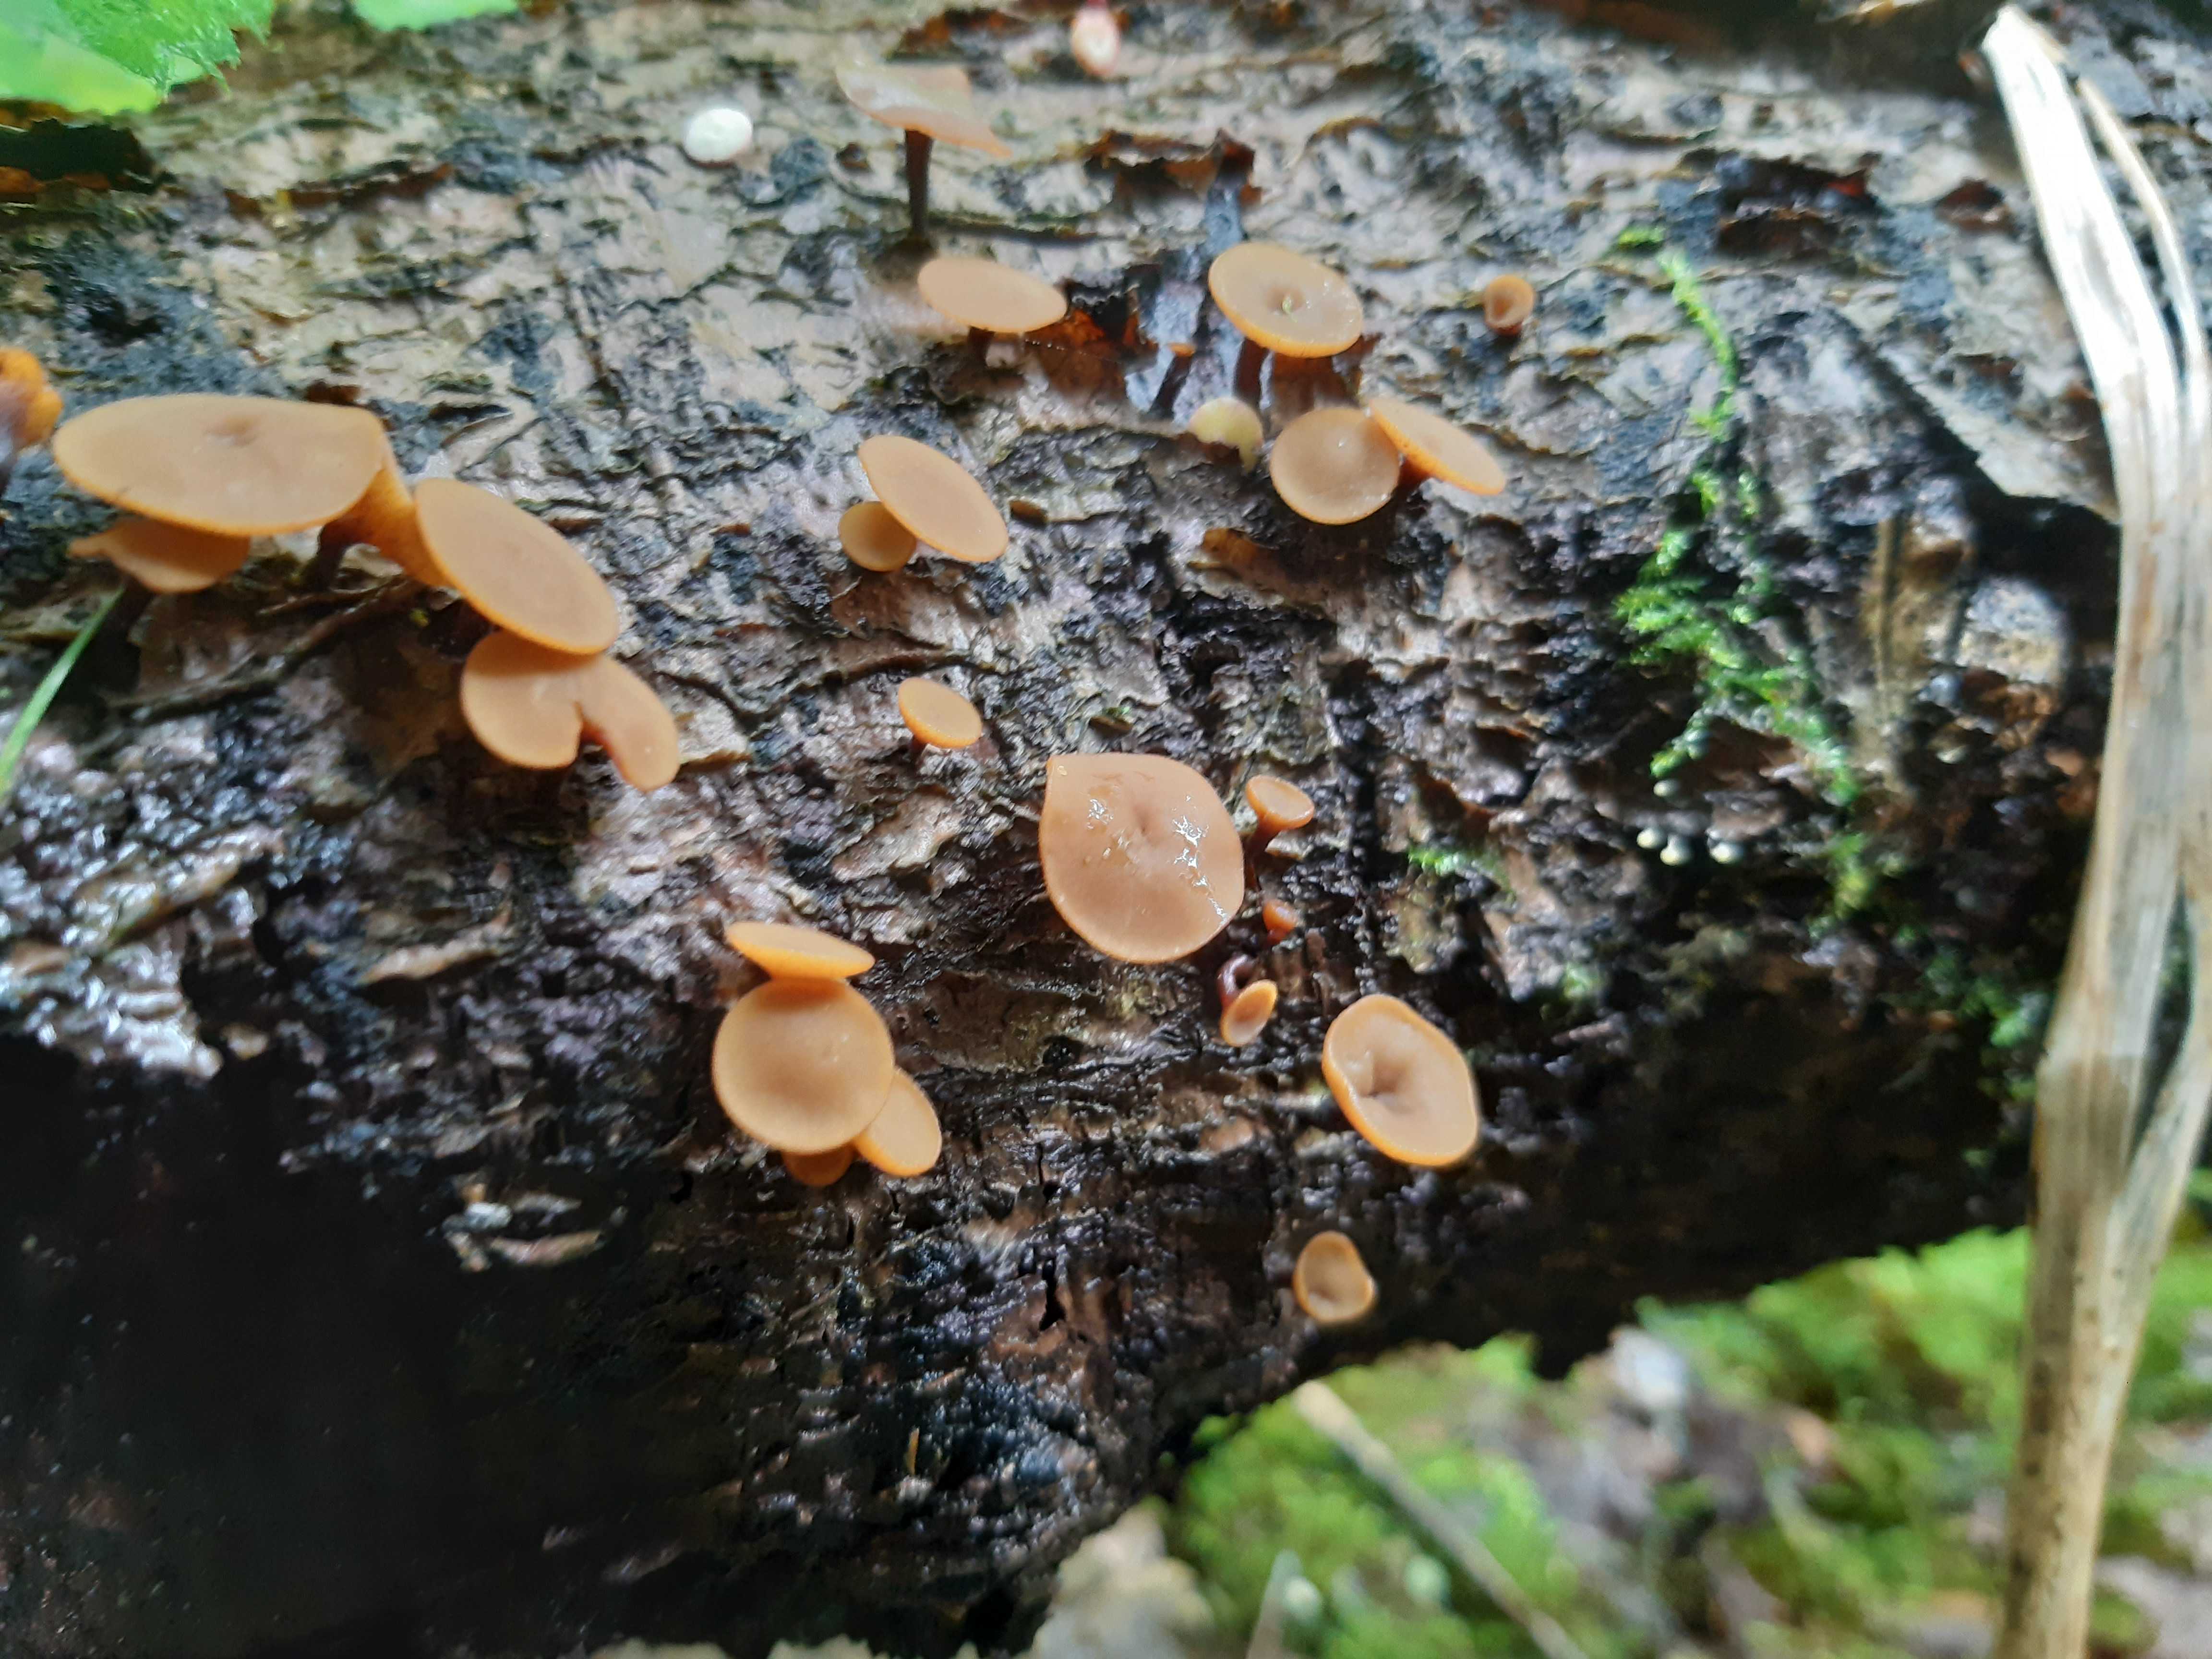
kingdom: Fungi
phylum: Ascomycota
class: Leotiomycetes
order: Helotiales
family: Rutstroemiaceae
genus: Rutstroemia
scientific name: Rutstroemia firma
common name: gren-brunskive
